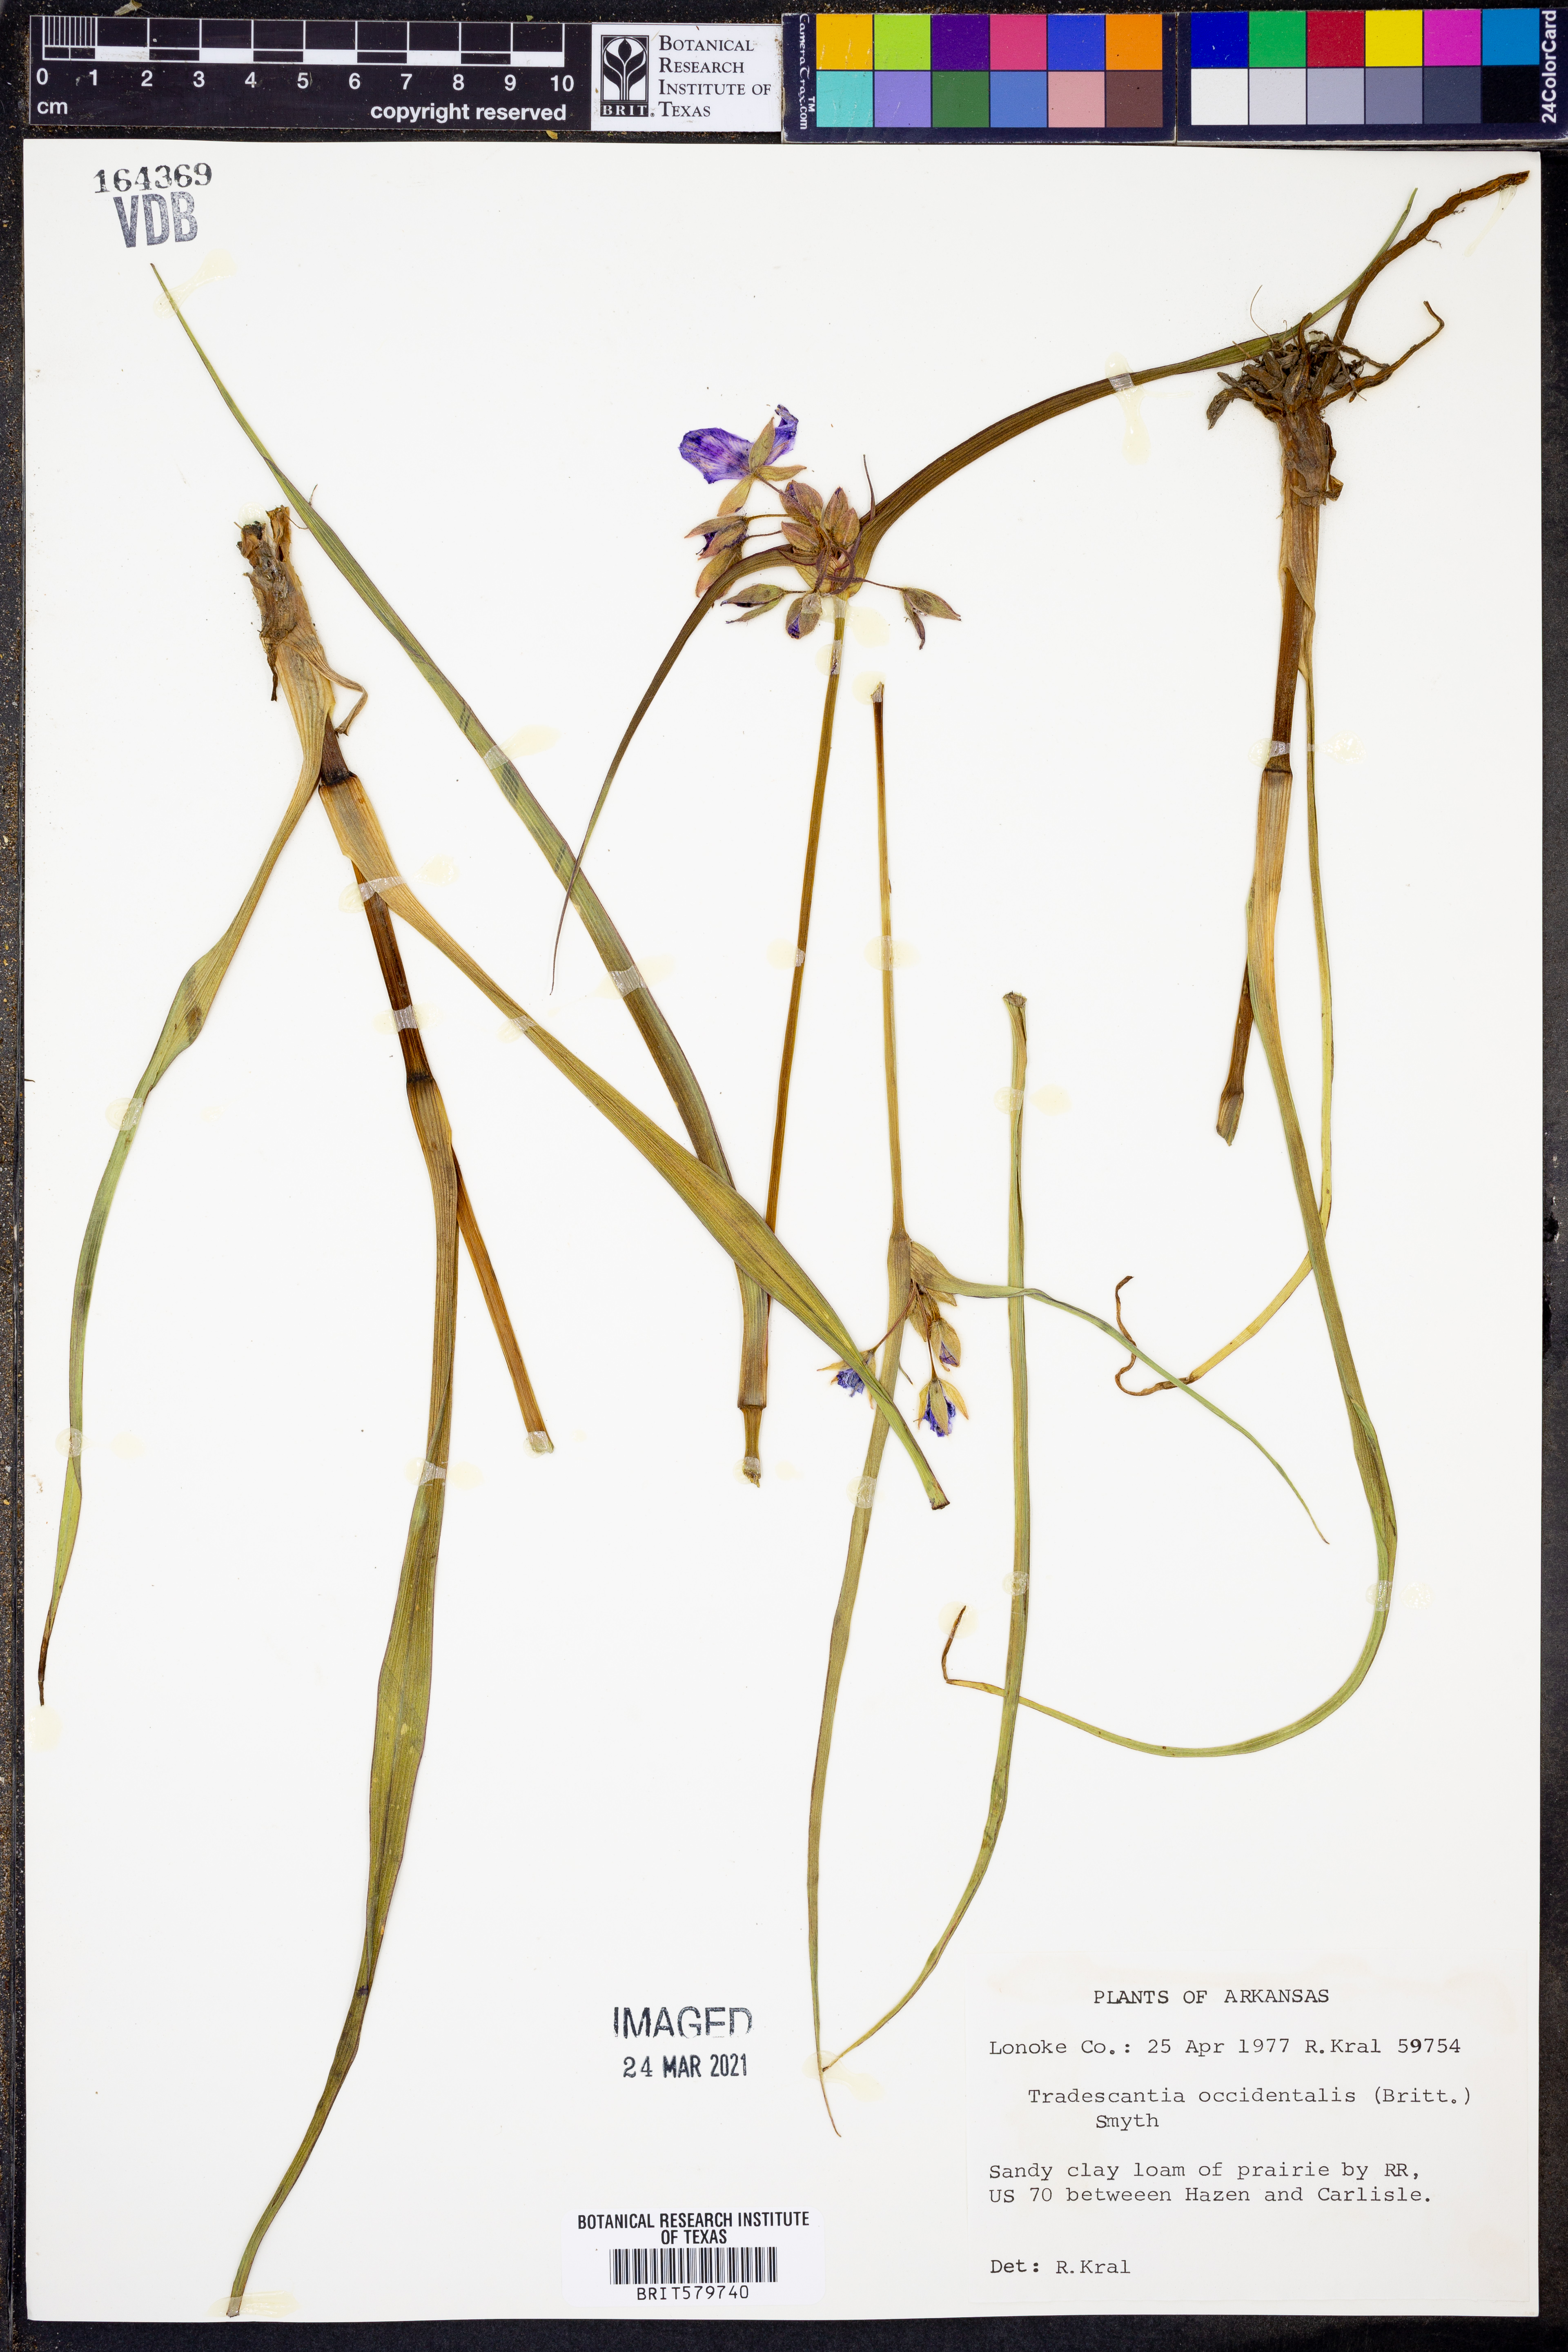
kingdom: Plantae
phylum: Tracheophyta
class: Liliopsida
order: Commelinales
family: Commelinaceae
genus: Tradescantia
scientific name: Tradescantia occidentalis
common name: Prairie spiderwort
